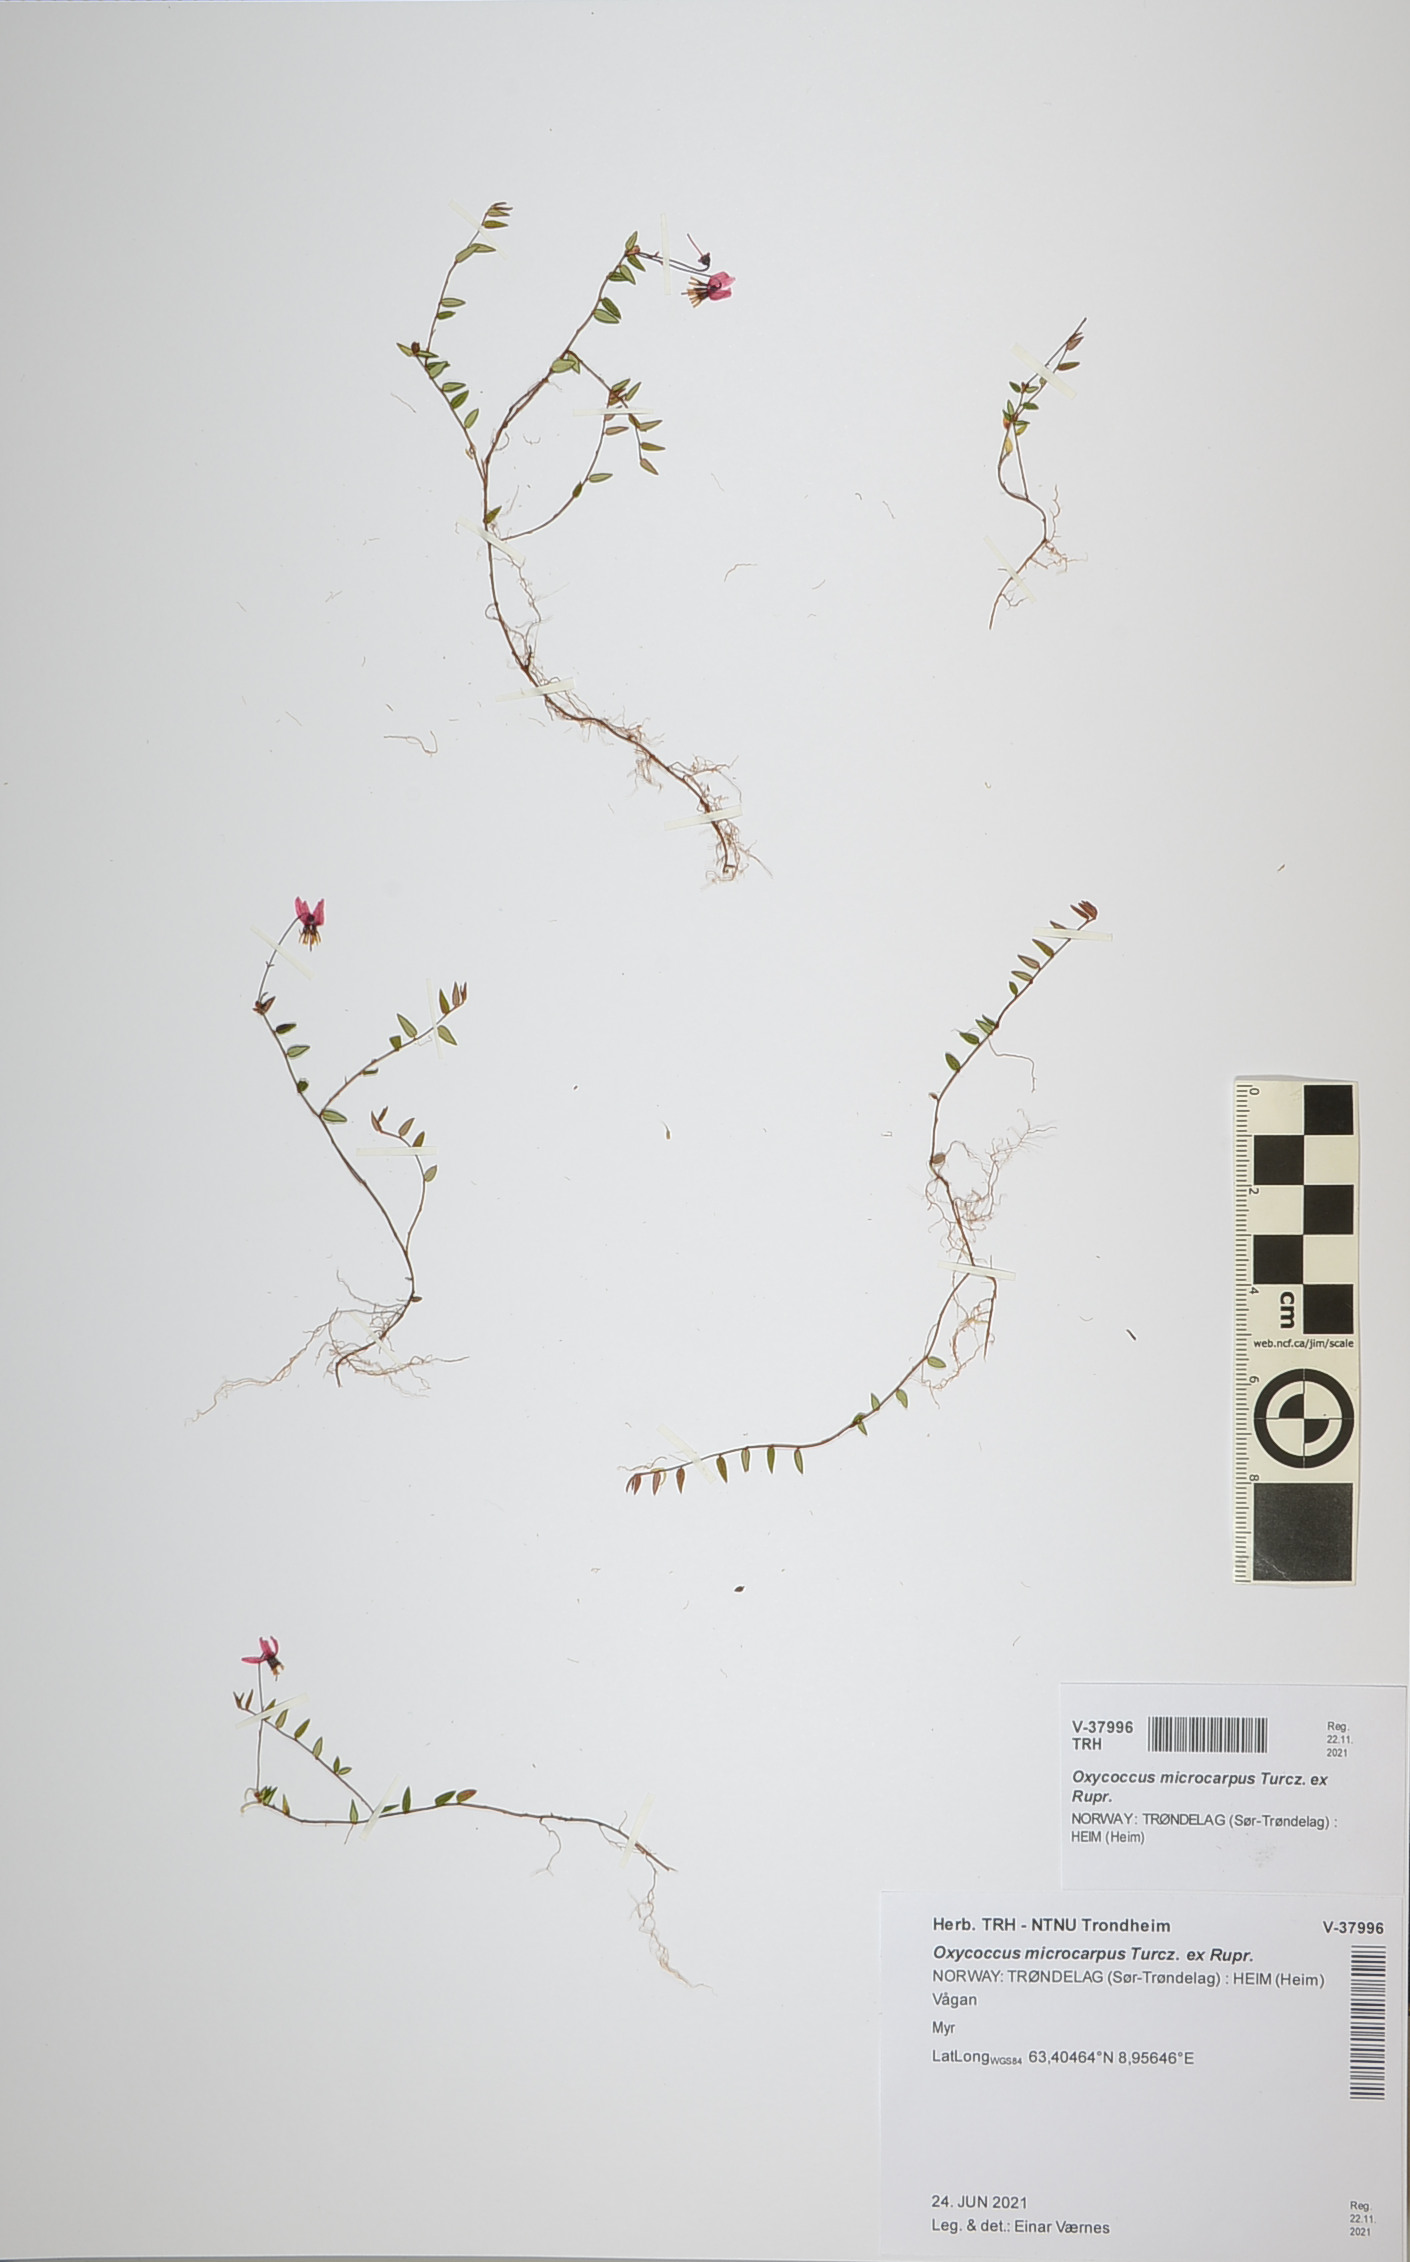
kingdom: Plantae
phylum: Tracheophyta
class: Magnoliopsida
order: Ericales
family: Ericaceae
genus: Vaccinium
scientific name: Vaccinium microcarpum
